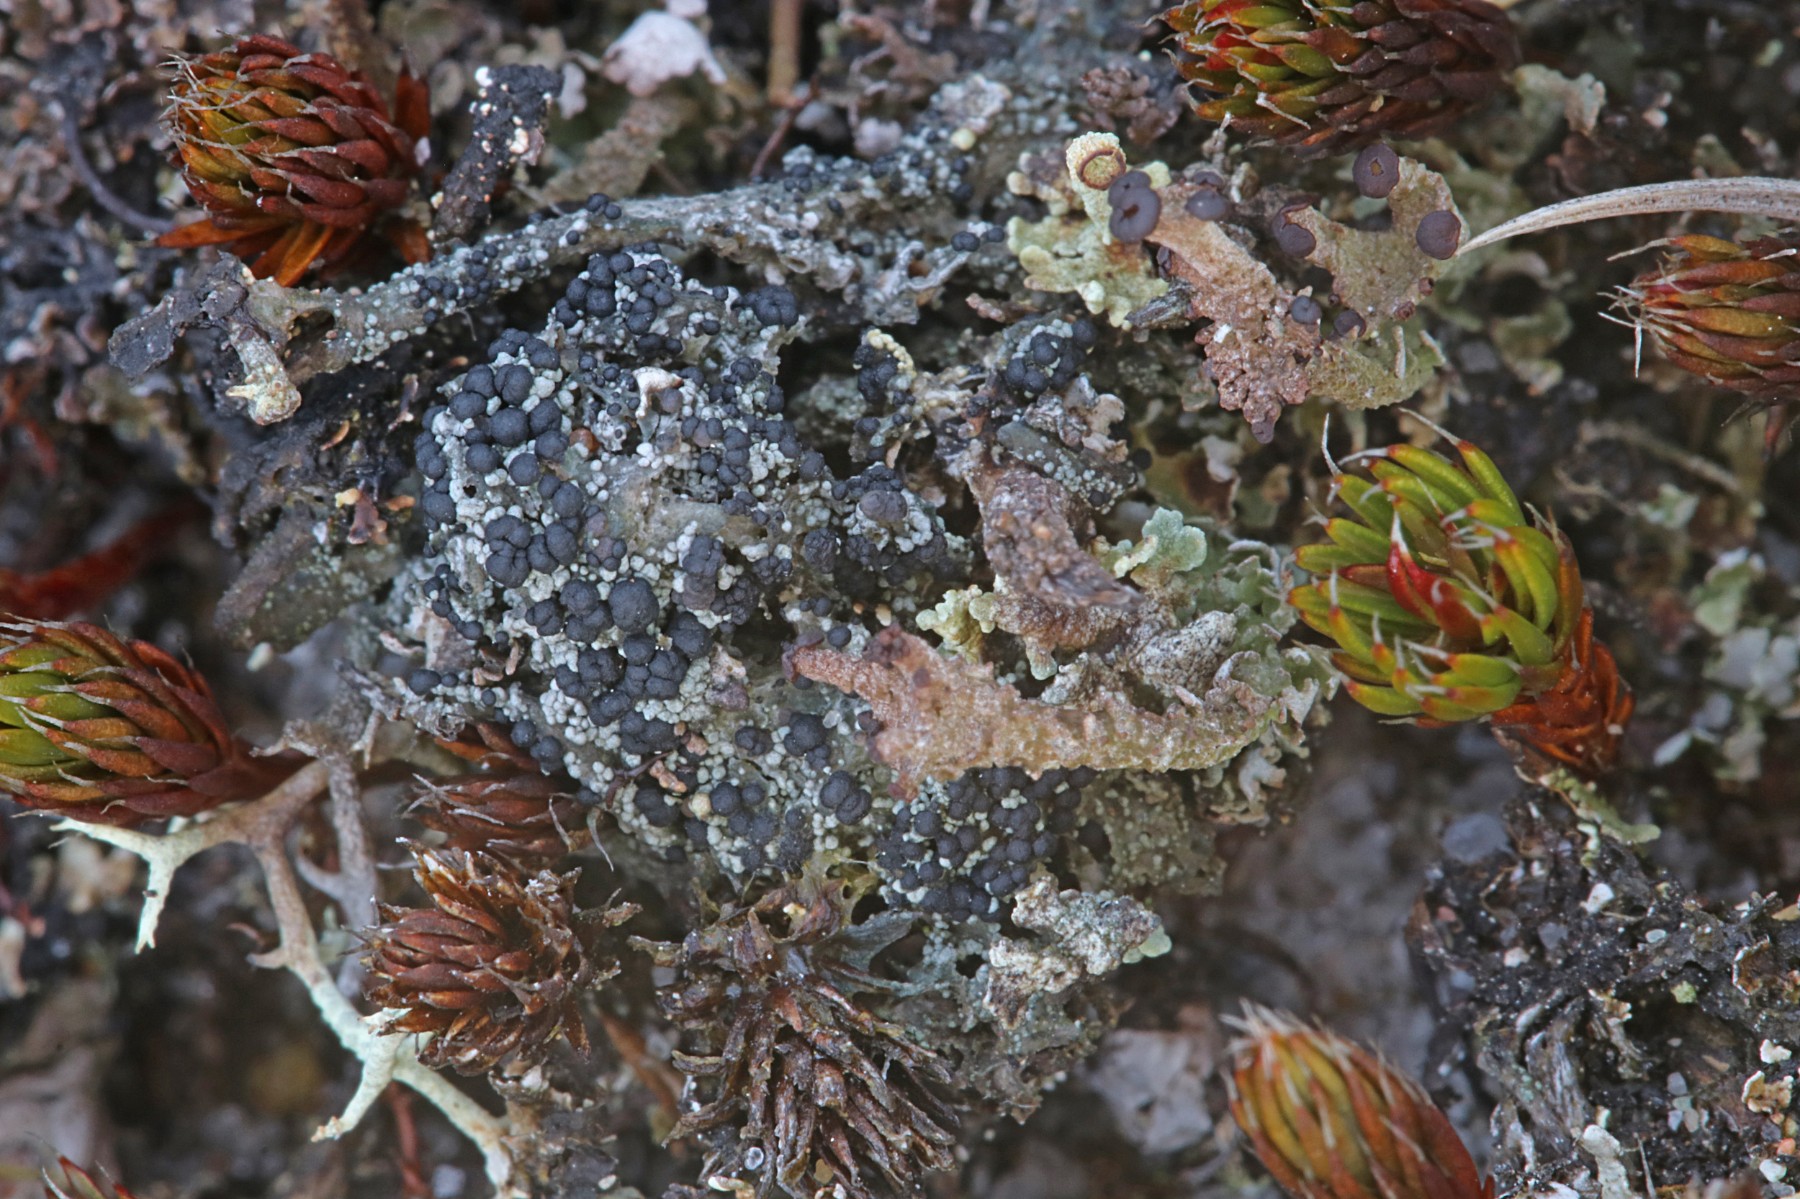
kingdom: Fungi
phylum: Ascomycota
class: Lecanoromycetes
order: Lecanorales
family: Byssolomataceae
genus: Micarea
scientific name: Micarea lignaria
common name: tørve-knaplav
